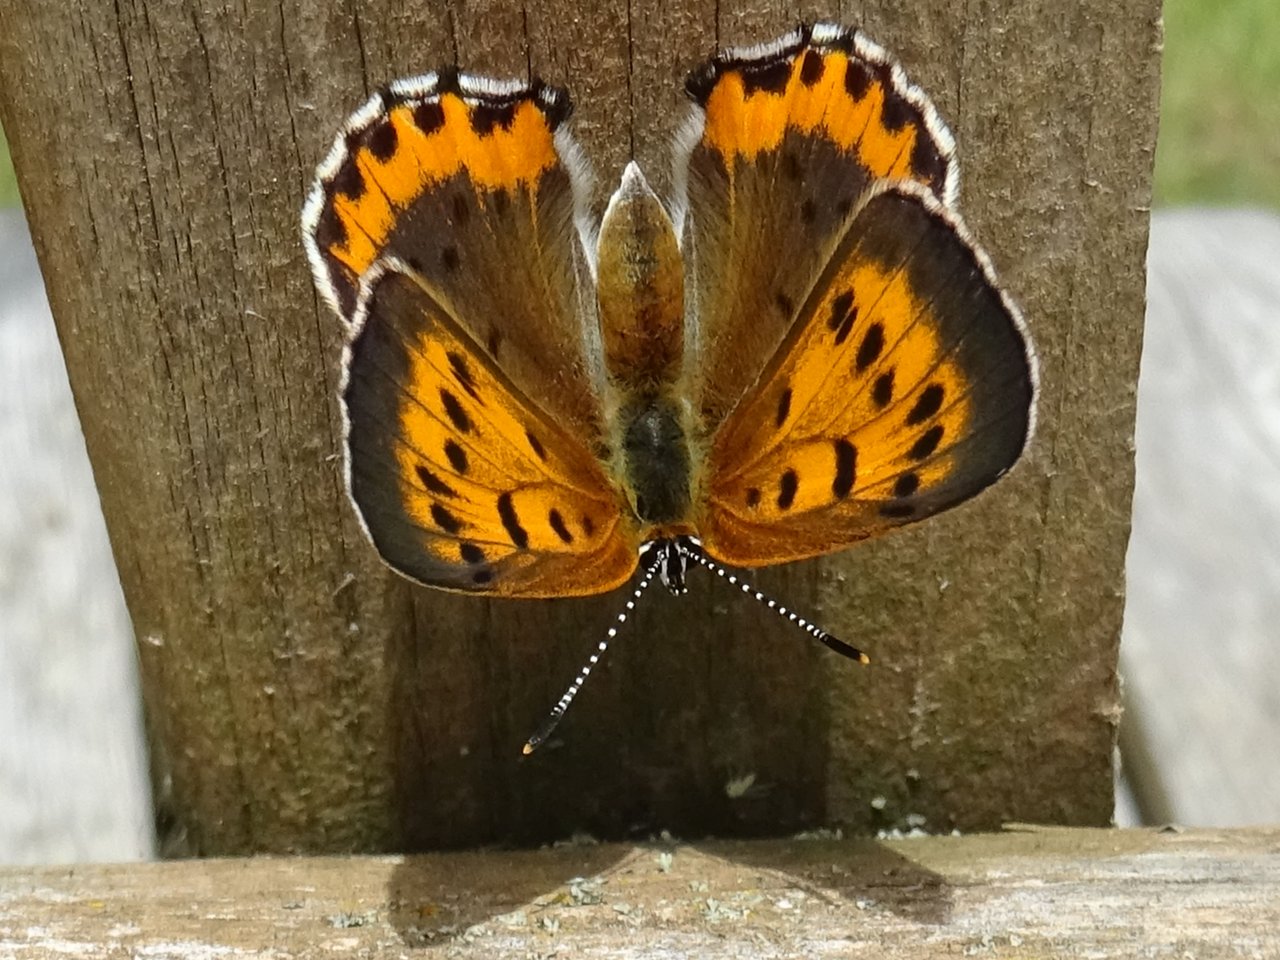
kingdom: Animalia
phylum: Arthropoda
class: Insecta
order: Lepidoptera
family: Lycaenidae
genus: Lycaena
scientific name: Lycaena phlaeas
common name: American Copper
